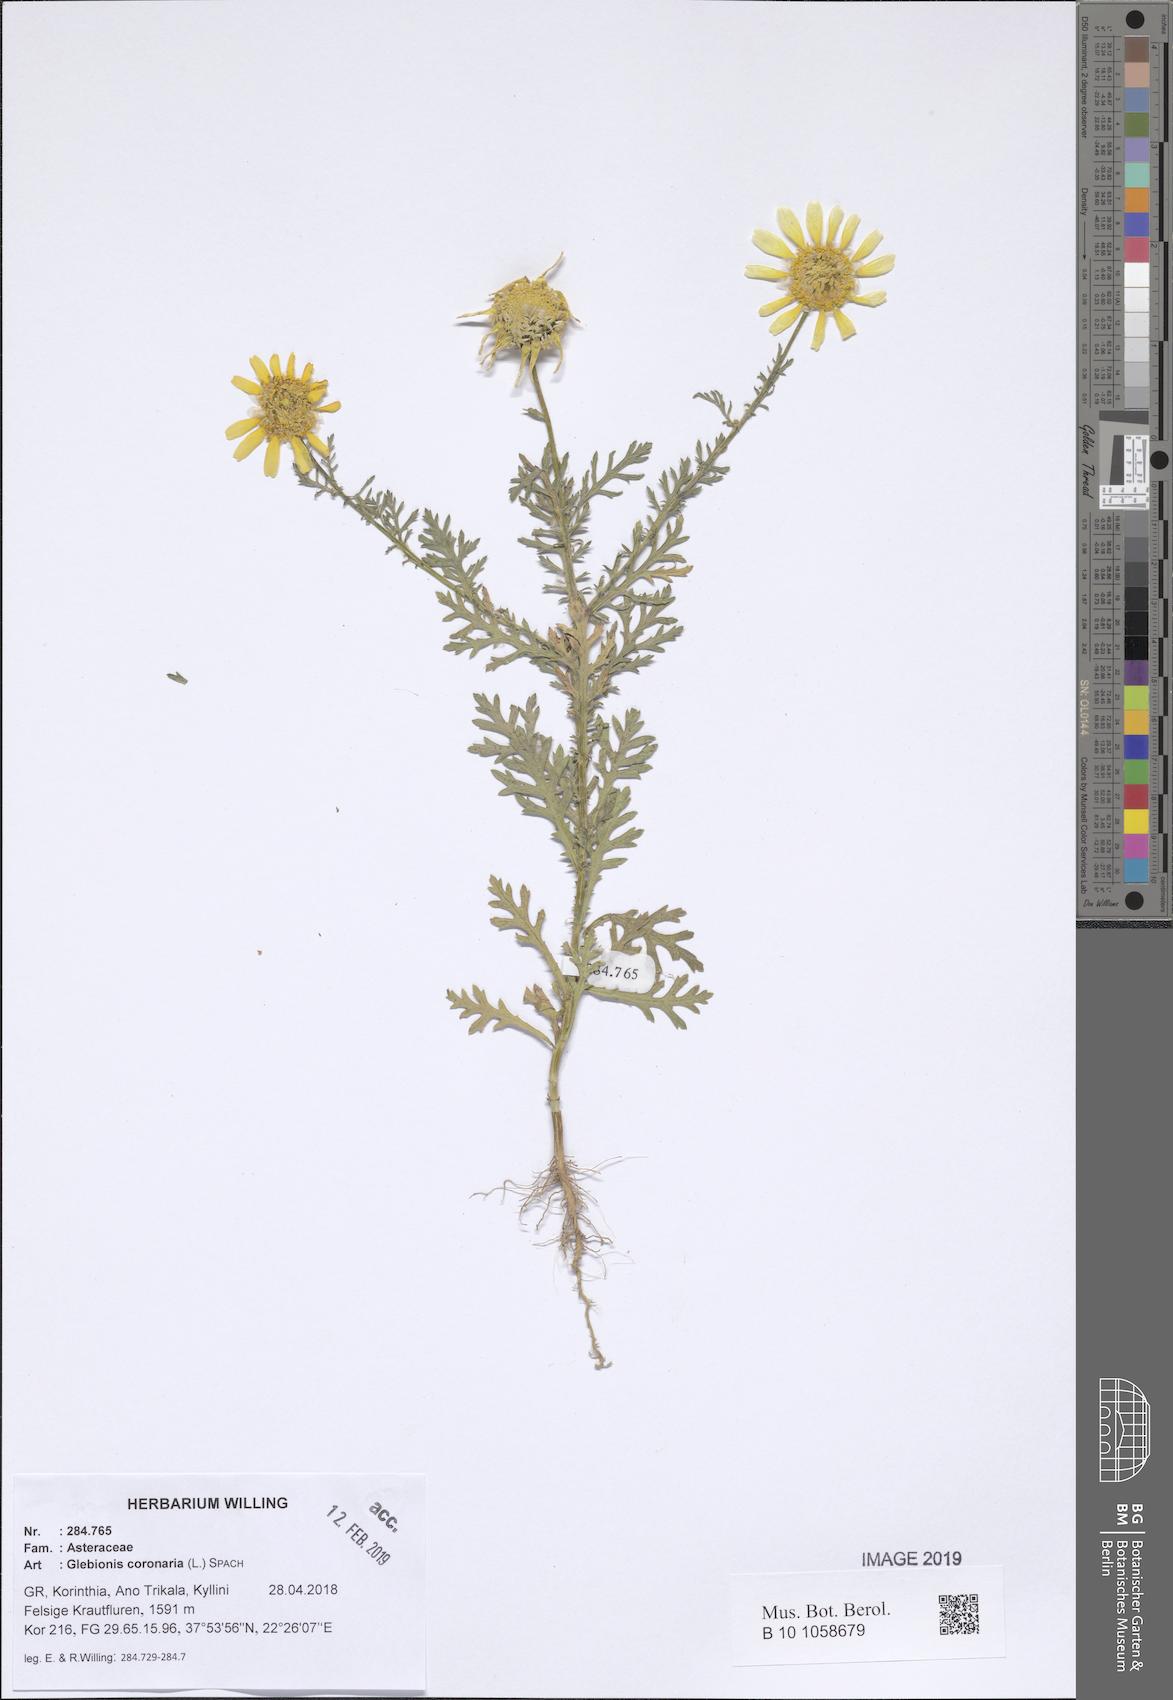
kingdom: Plantae
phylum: Tracheophyta
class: Magnoliopsida
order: Asterales
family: Asteraceae
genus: Glebionis
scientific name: Glebionis coronaria
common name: Crowndaisy
